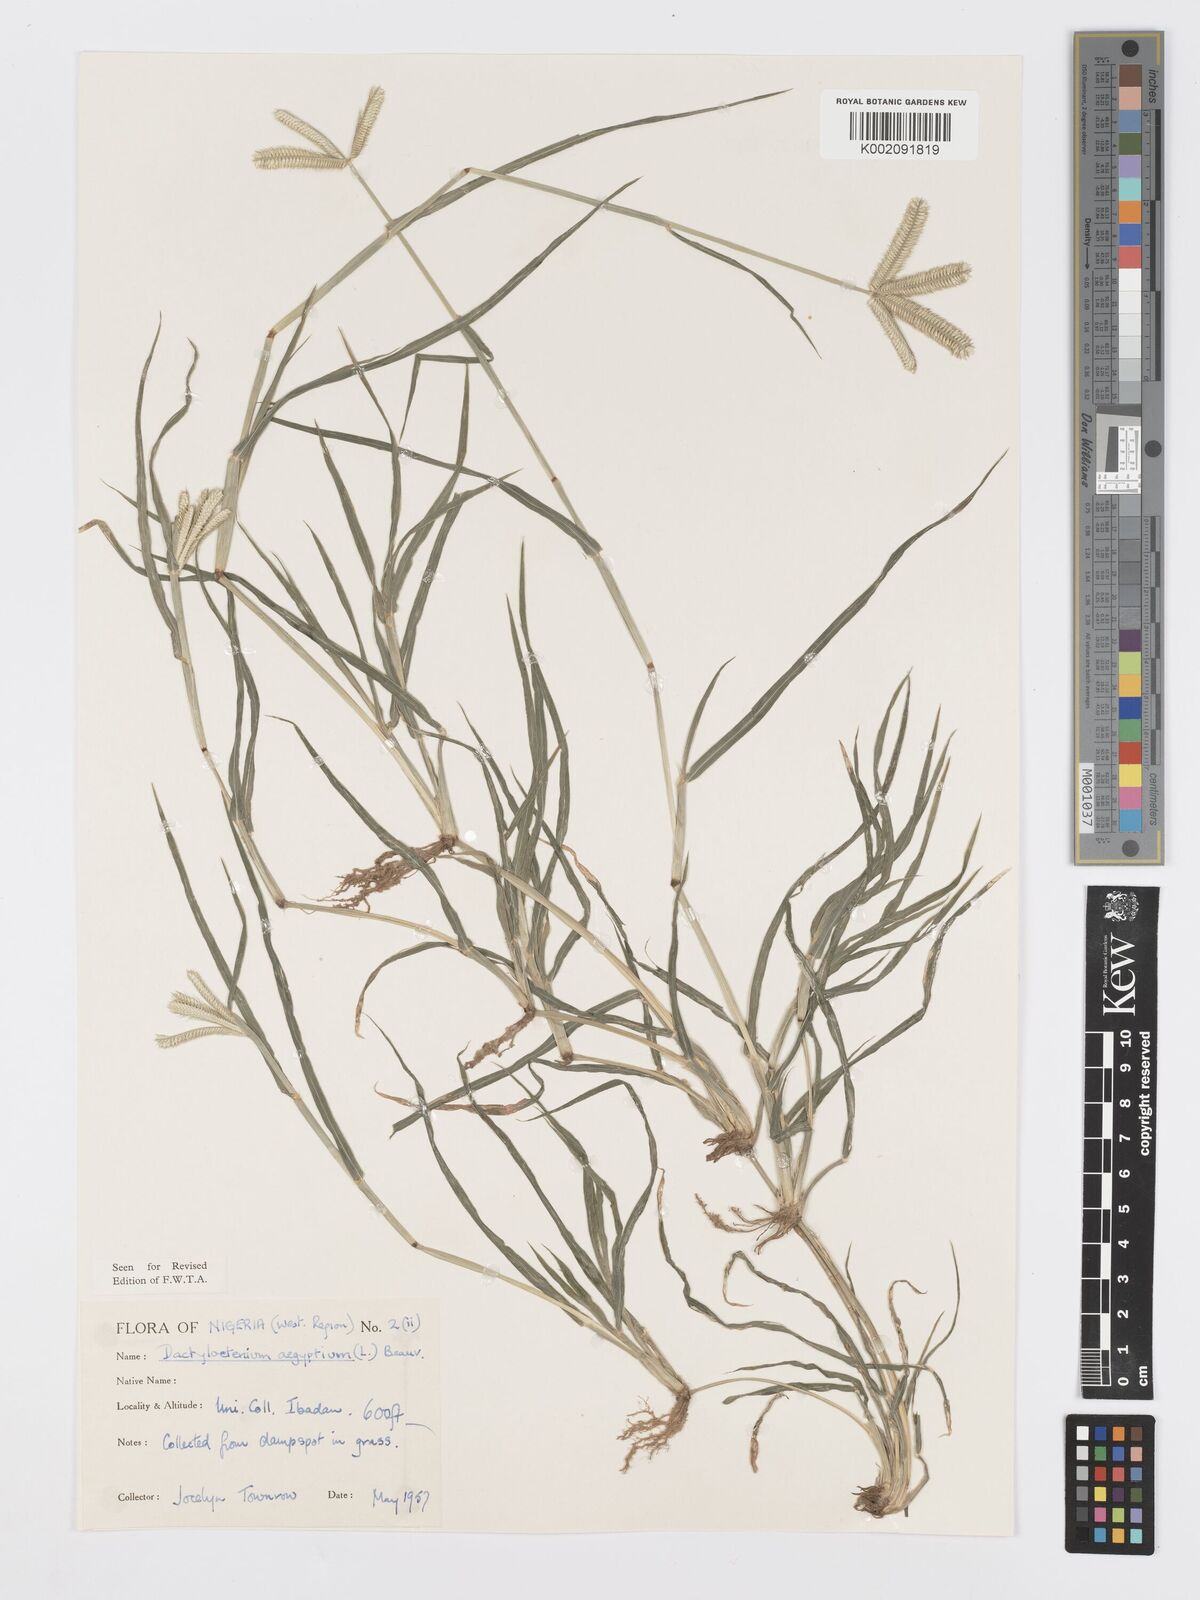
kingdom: Plantae
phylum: Tracheophyta
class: Liliopsida
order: Poales
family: Poaceae
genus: Dactyloctenium
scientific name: Dactyloctenium aegyptium
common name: Egyptian grass
